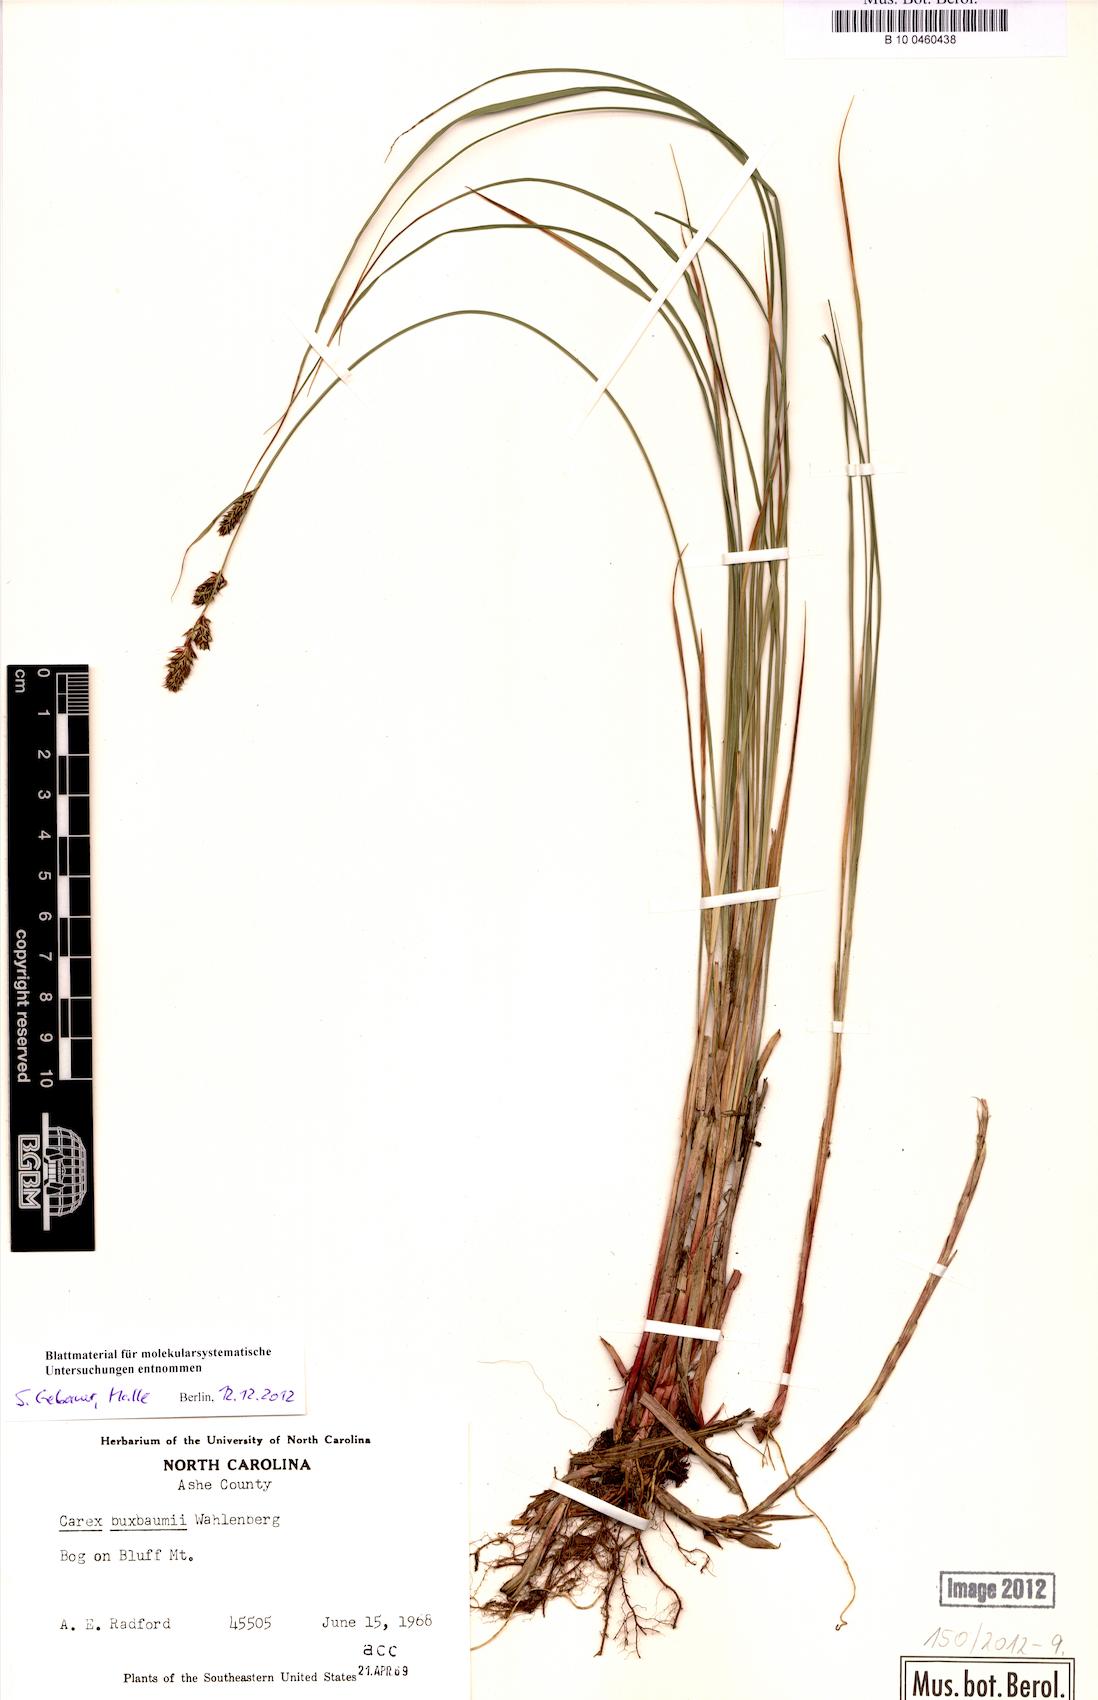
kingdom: Plantae
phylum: Tracheophyta
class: Liliopsida
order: Poales
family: Cyperaceae
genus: Carex
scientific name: Carex buxbaumii
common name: Club sedge
